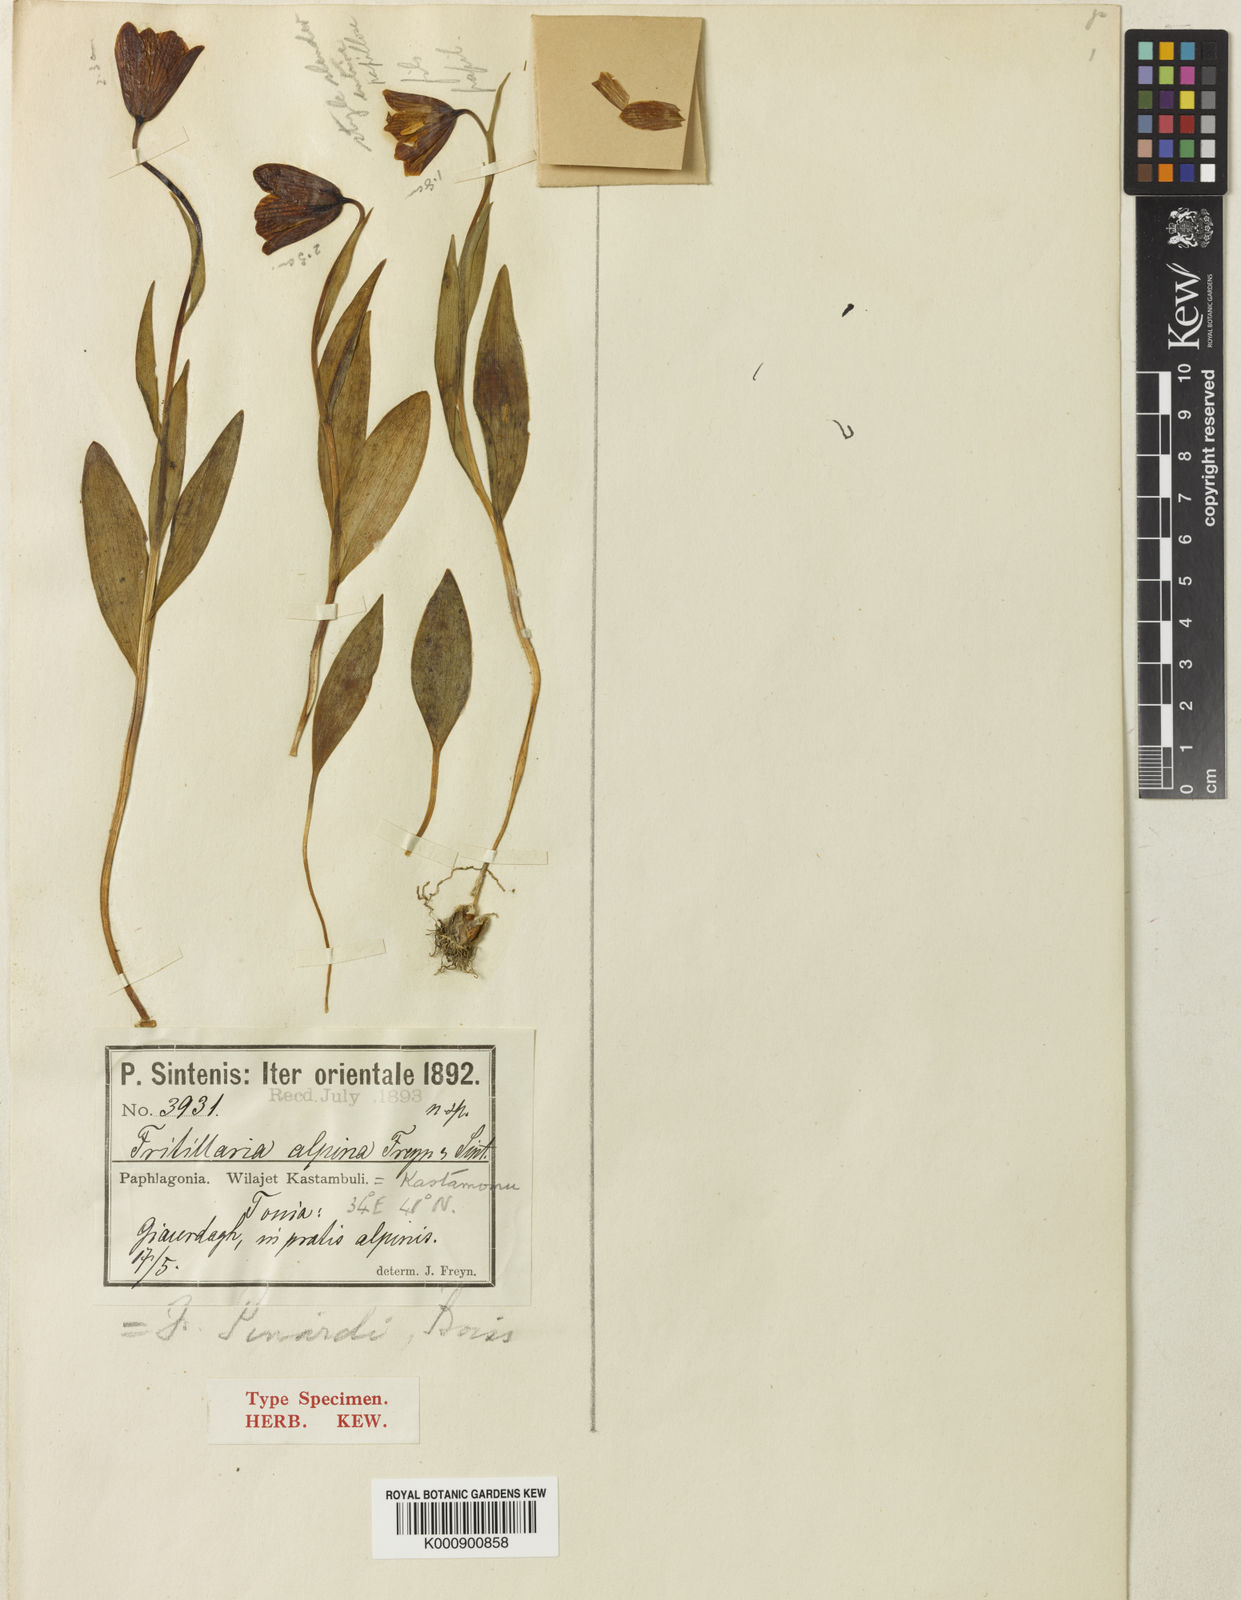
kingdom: Plantae
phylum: Tracheophyta
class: Liliopsida
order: Liliales
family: Liliaceae
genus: Fritillaria
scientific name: Fritillaria armena
